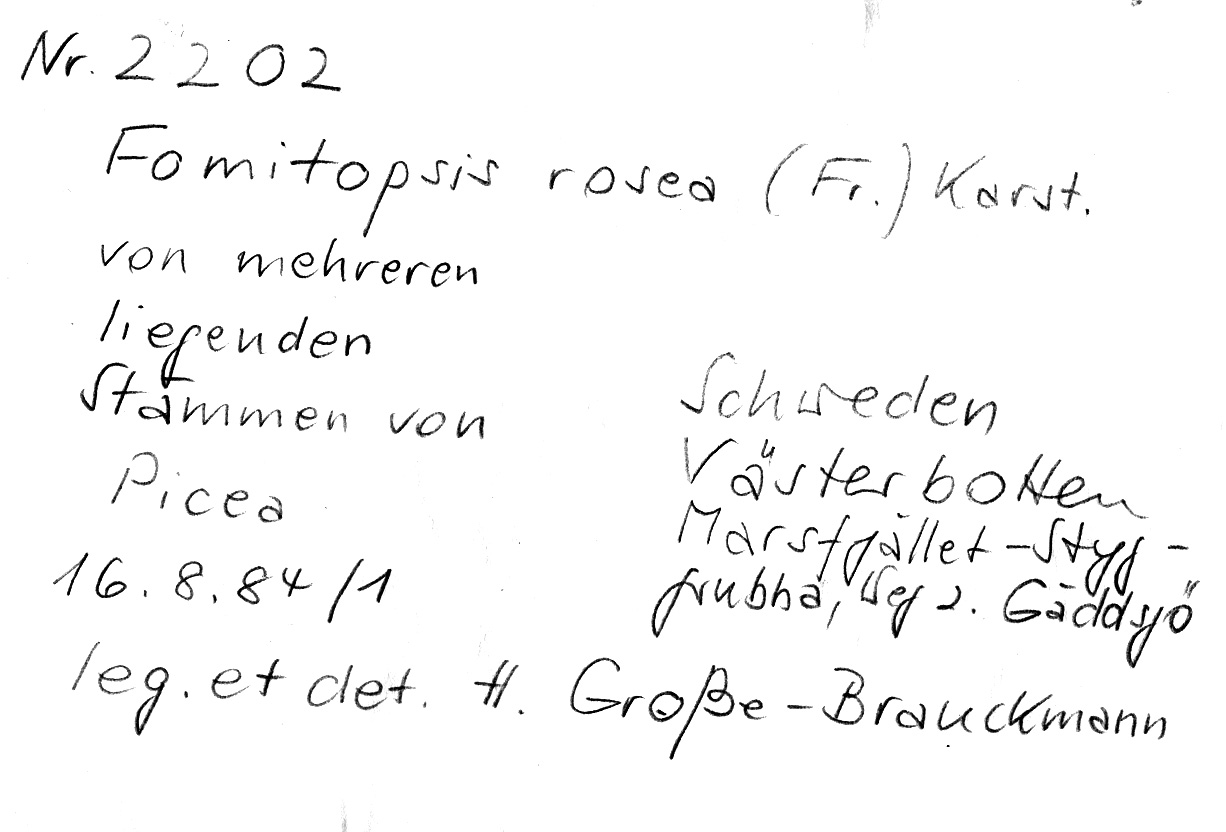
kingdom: Fungi
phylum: Basidiomycota
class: Agaricomycetes
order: Polyporales
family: Fomitopsidaceae
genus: Rhodofomes
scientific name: Rhodofomes roseus
